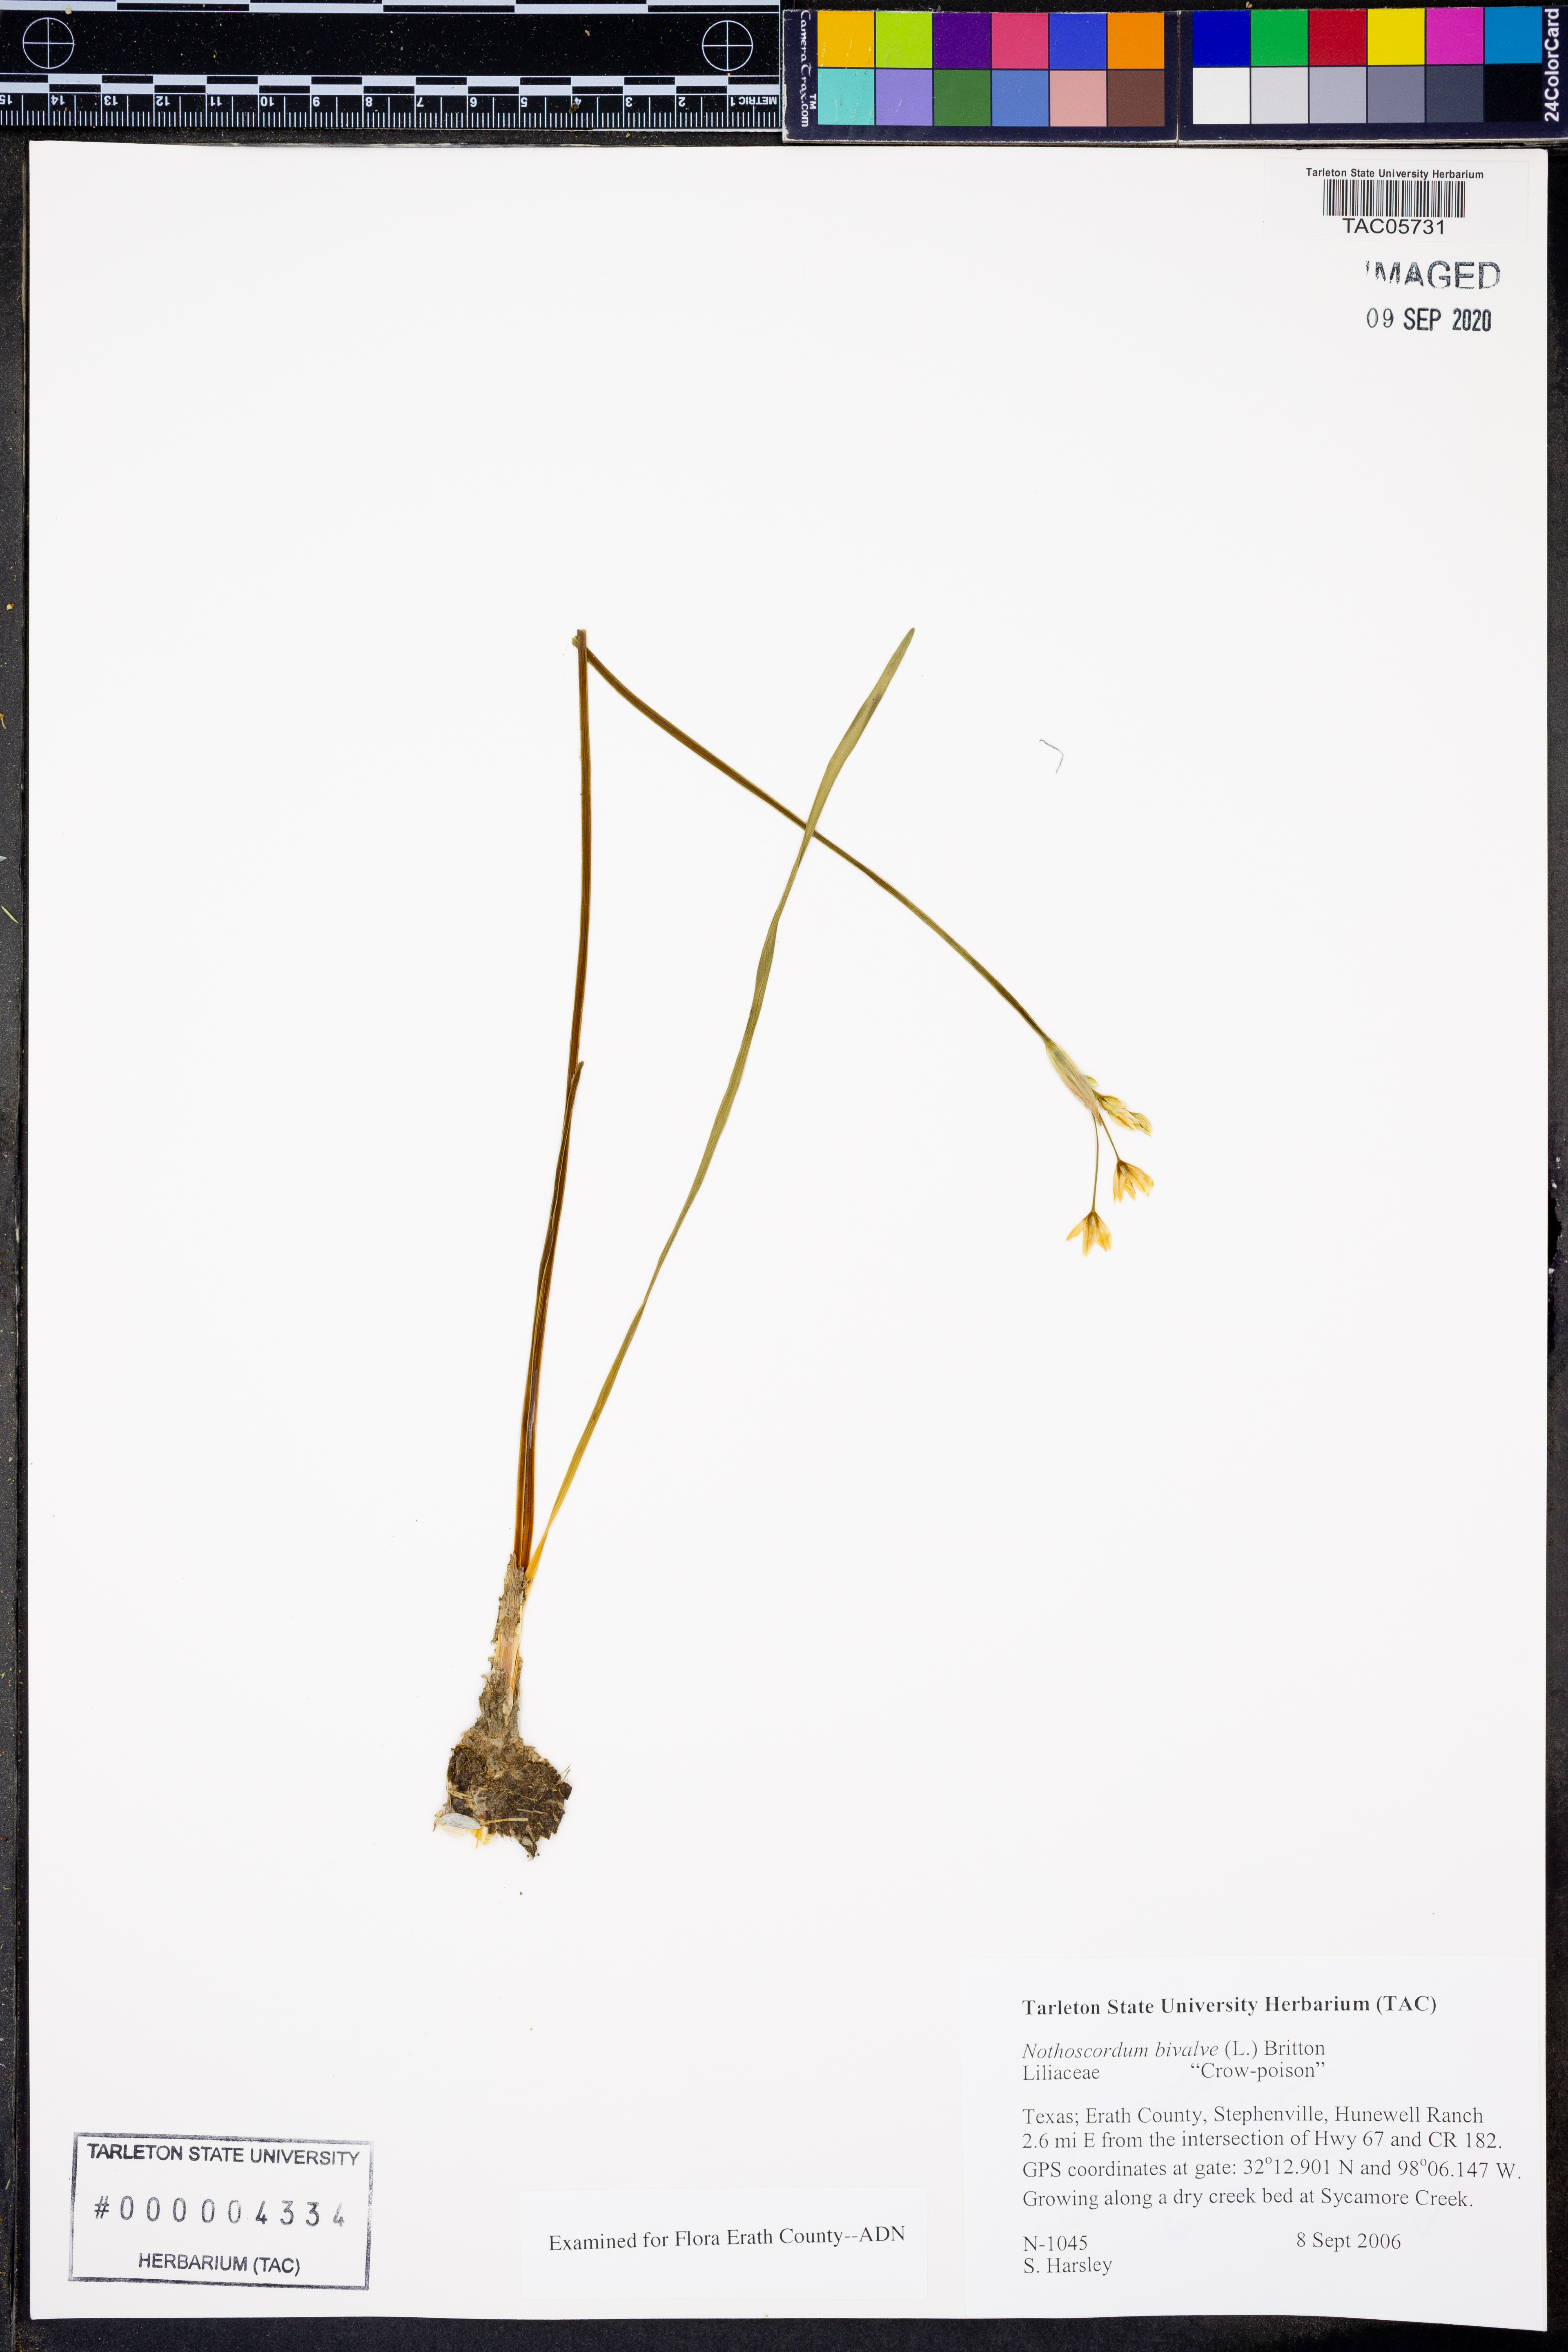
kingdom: Plantae
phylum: Tracheophyta
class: Liliopsida
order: Asparagales
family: Amaryllidaceae
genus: Nothoscordum
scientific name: Nothoscordum bivalve
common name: Crow-poison
